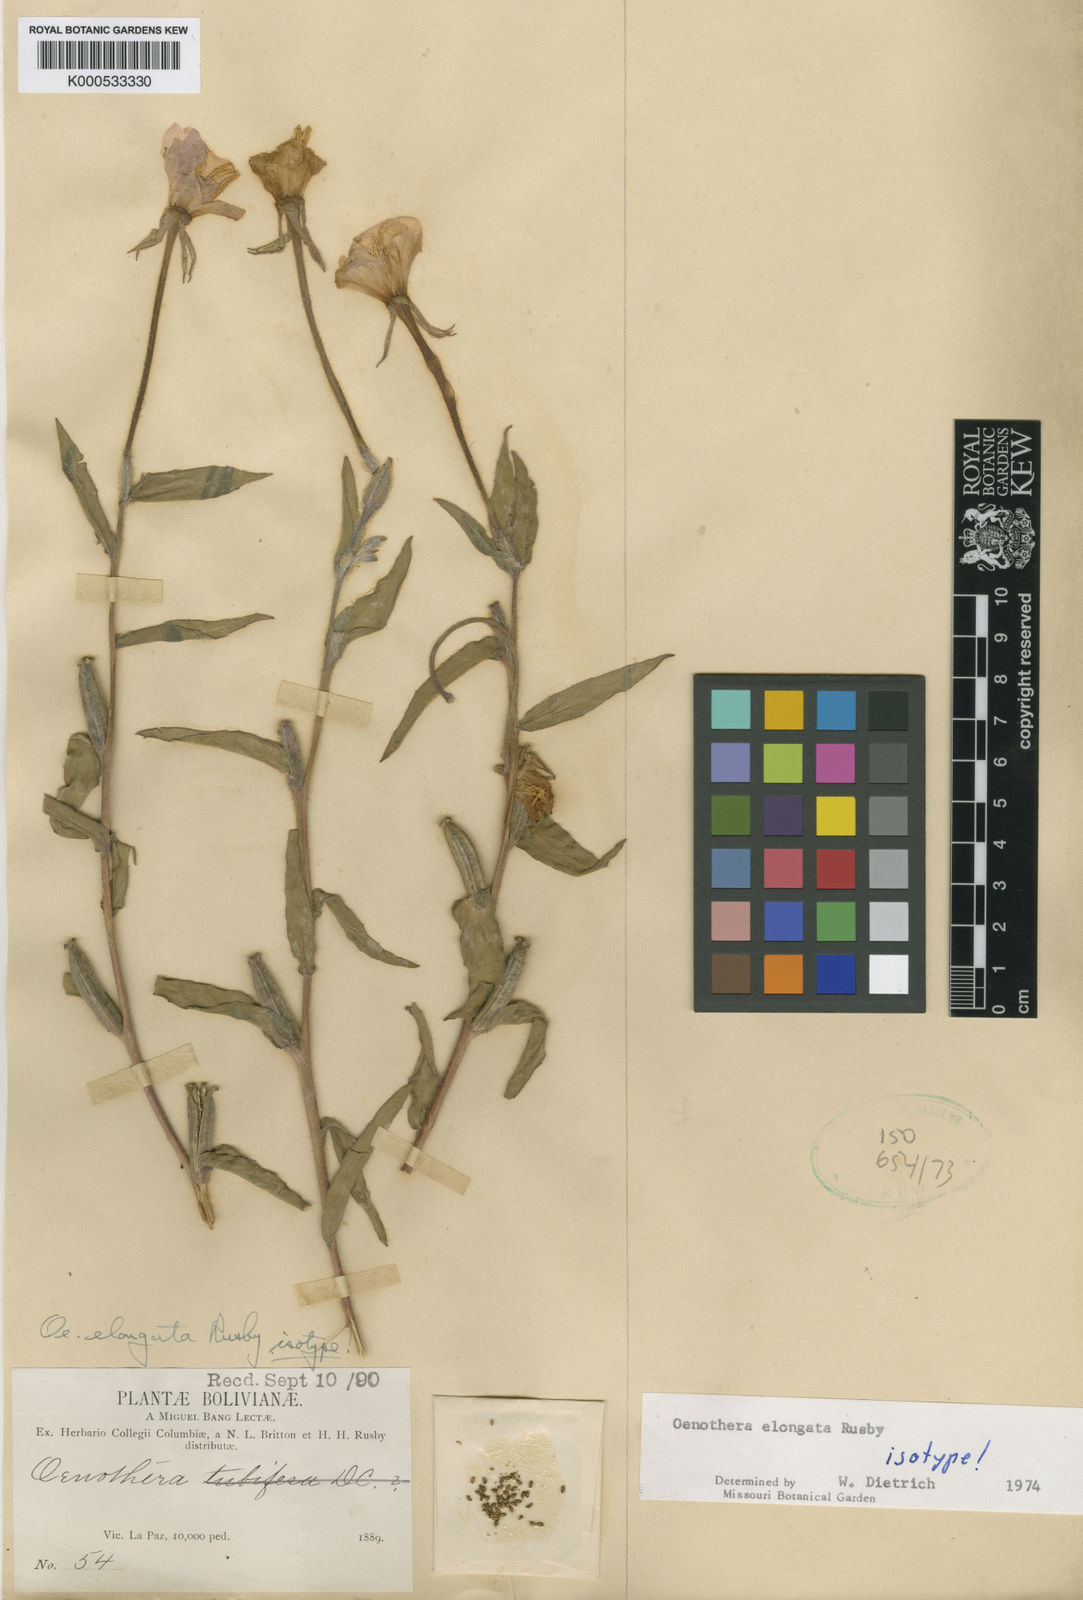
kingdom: Plantae
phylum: Tracheophyta
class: Magnoliopsida
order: Myrtales
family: Onagraceae
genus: Oenothera
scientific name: Oenothera elongata
